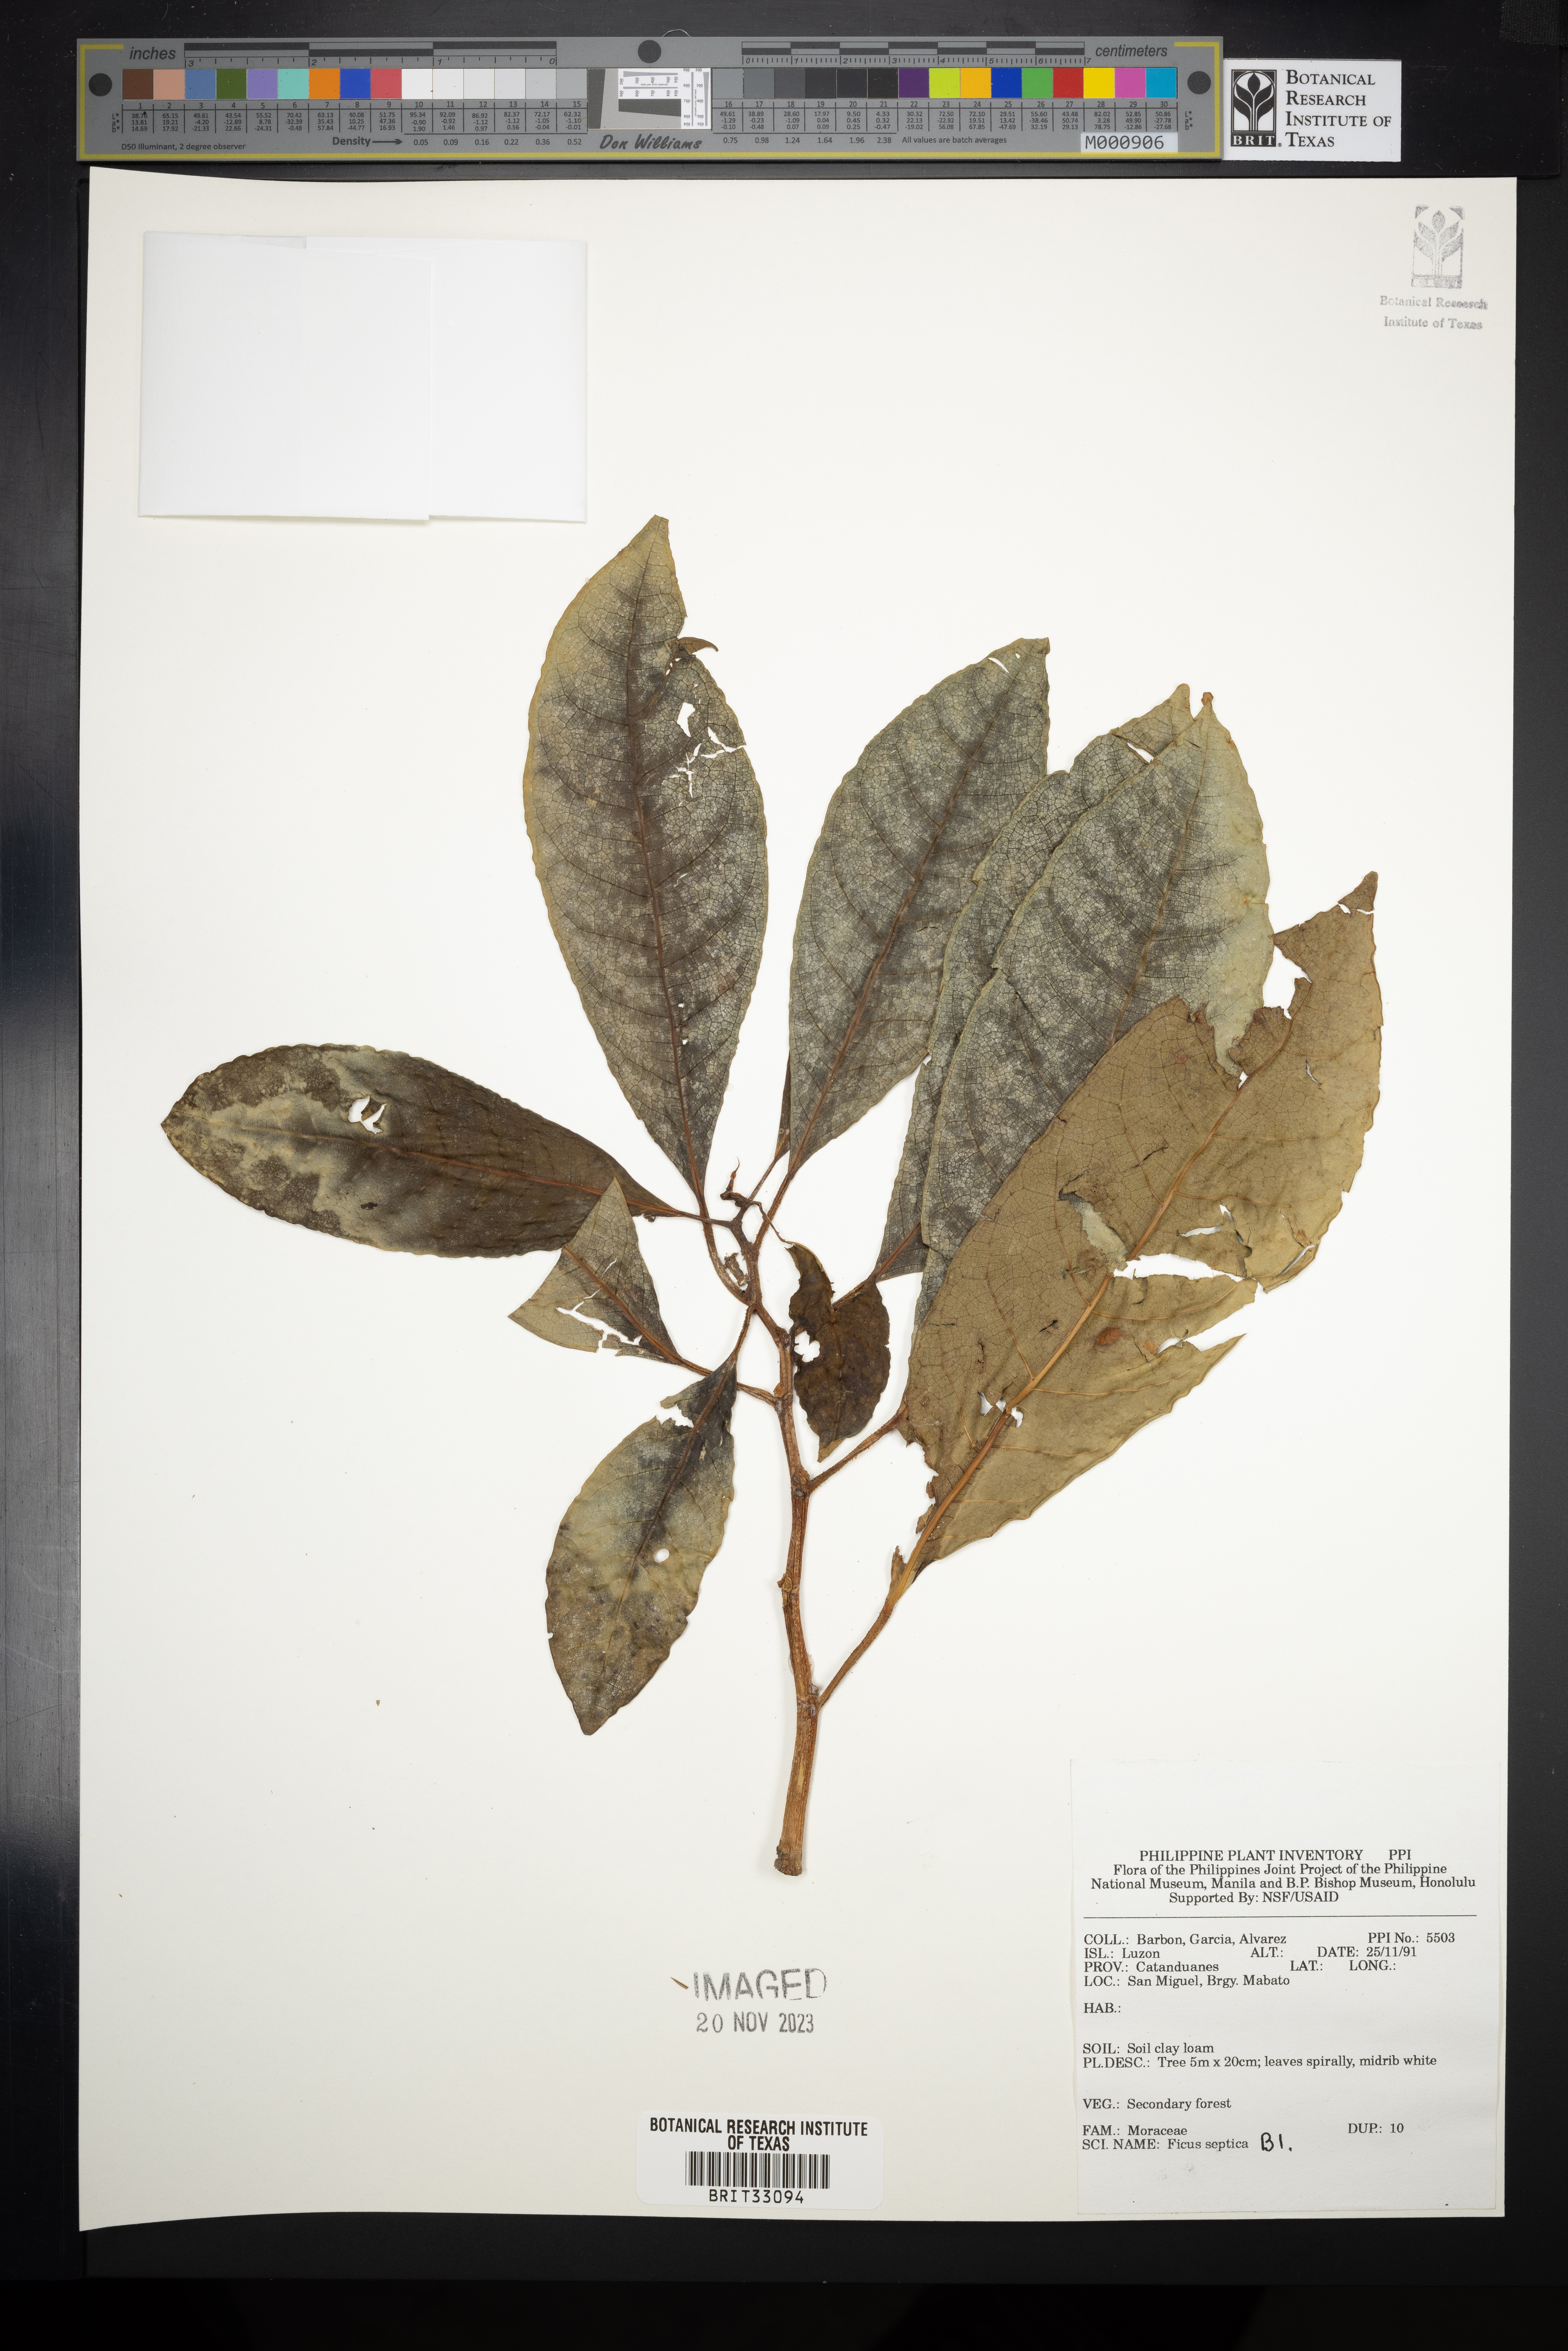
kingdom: Plantae
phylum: Tracheophyta
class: Magnoliopsida
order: Rosales
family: Moraceae
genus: Ficus
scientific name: Ficus septica
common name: Septic fig
